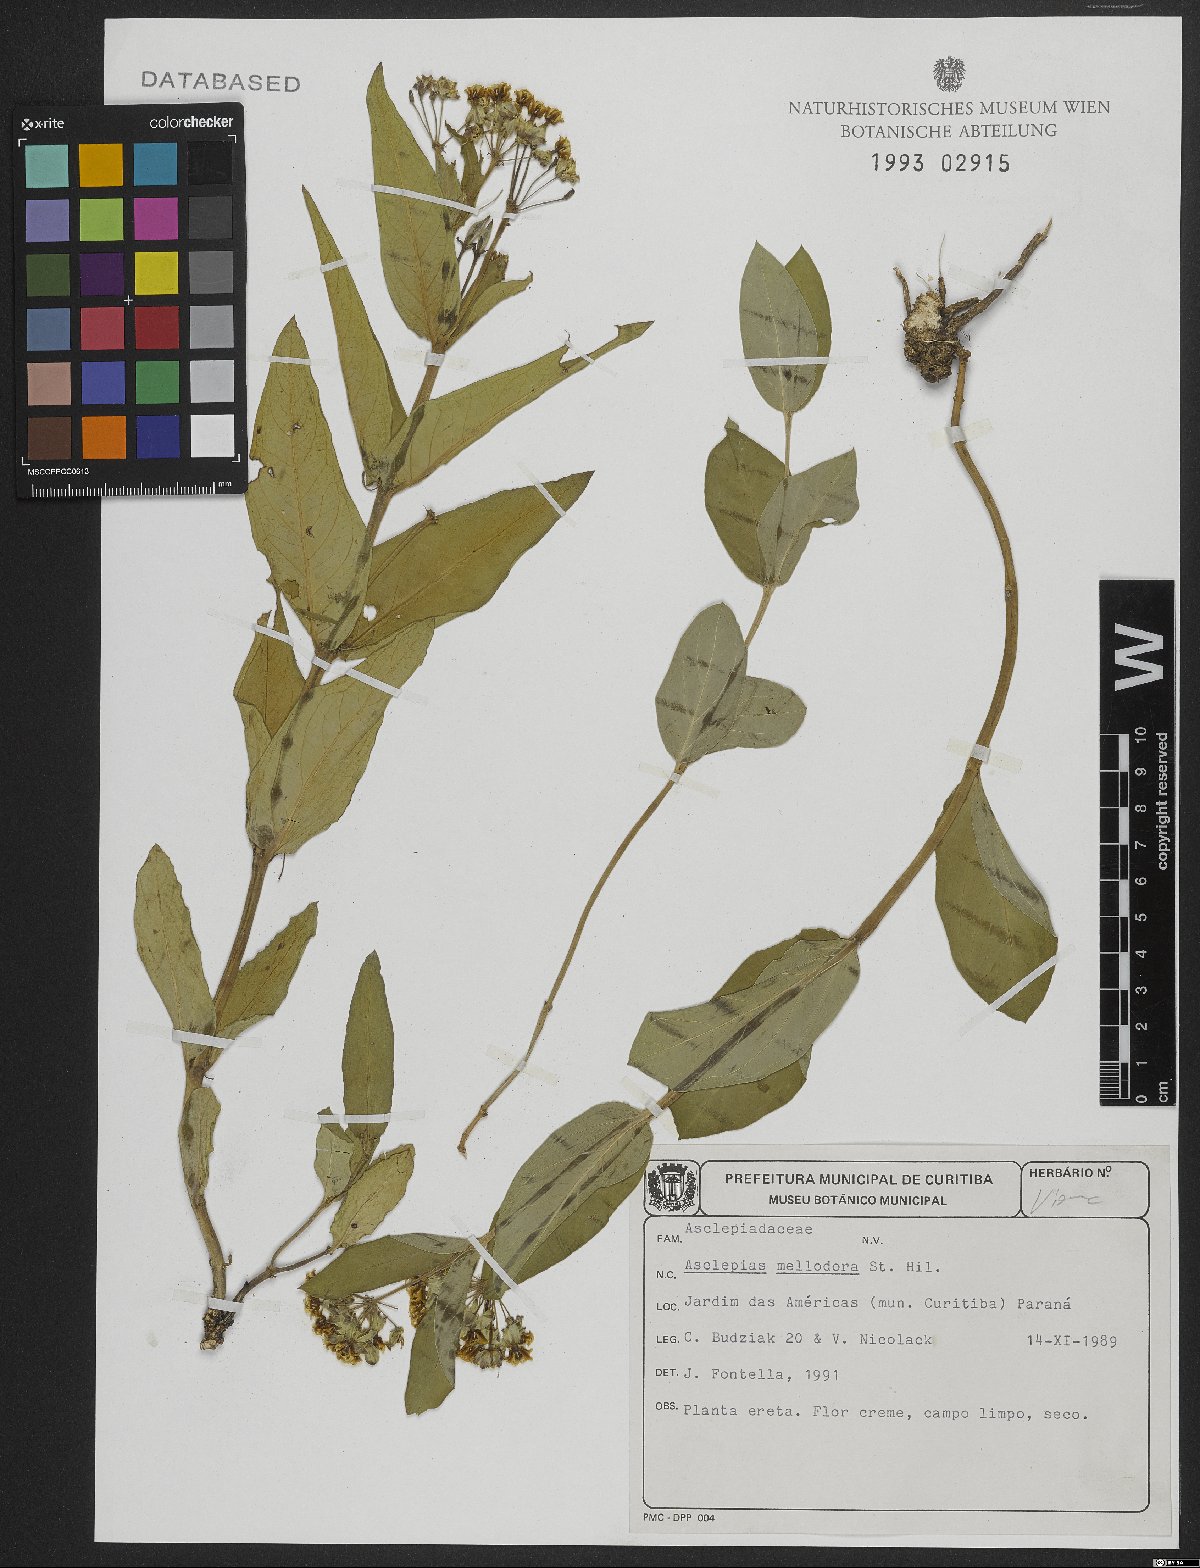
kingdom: Plantae
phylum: Tracheophyta
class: Magnoliopsida
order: Gentianales
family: Apocynaceae
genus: Asclepias
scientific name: Asclepias mellodora
